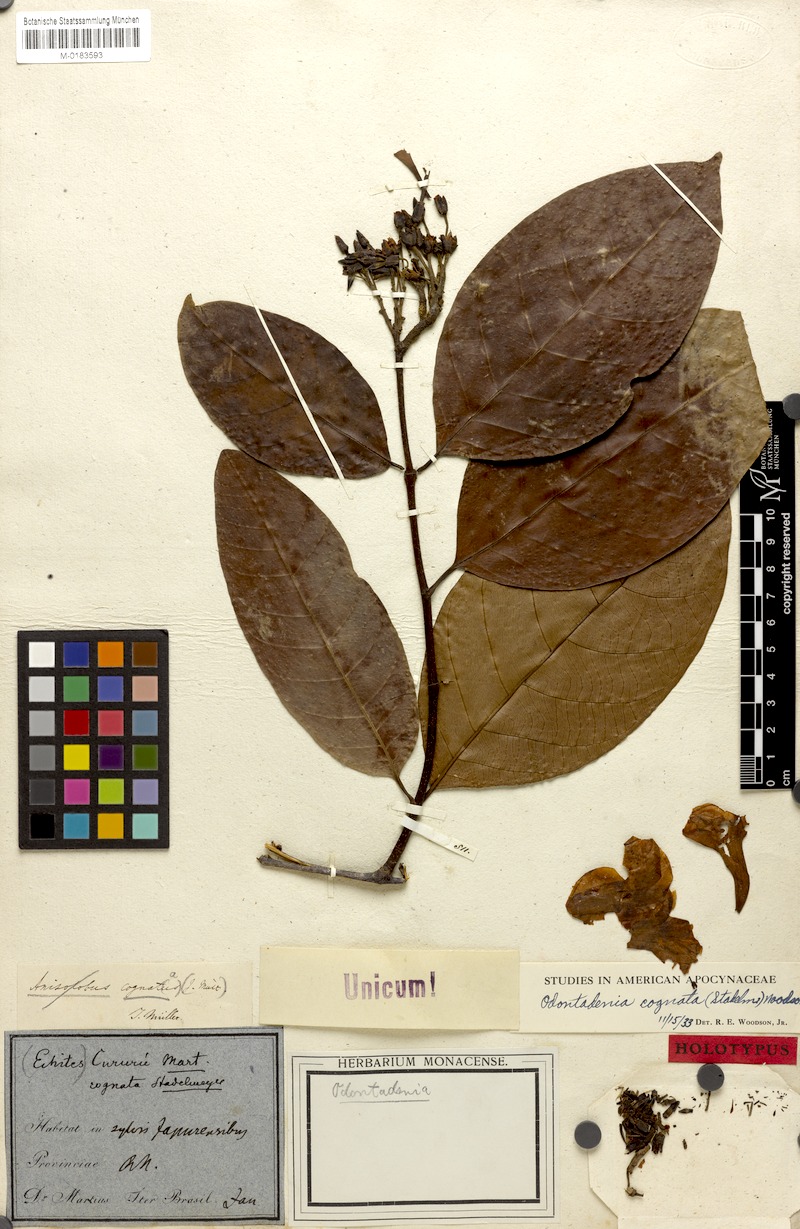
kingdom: Plantae
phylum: Tracheophyta
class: Magnoliopsida
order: Gentianales
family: Apocynaceae
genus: Odontadenia
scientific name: Odontadenia verrucosa
